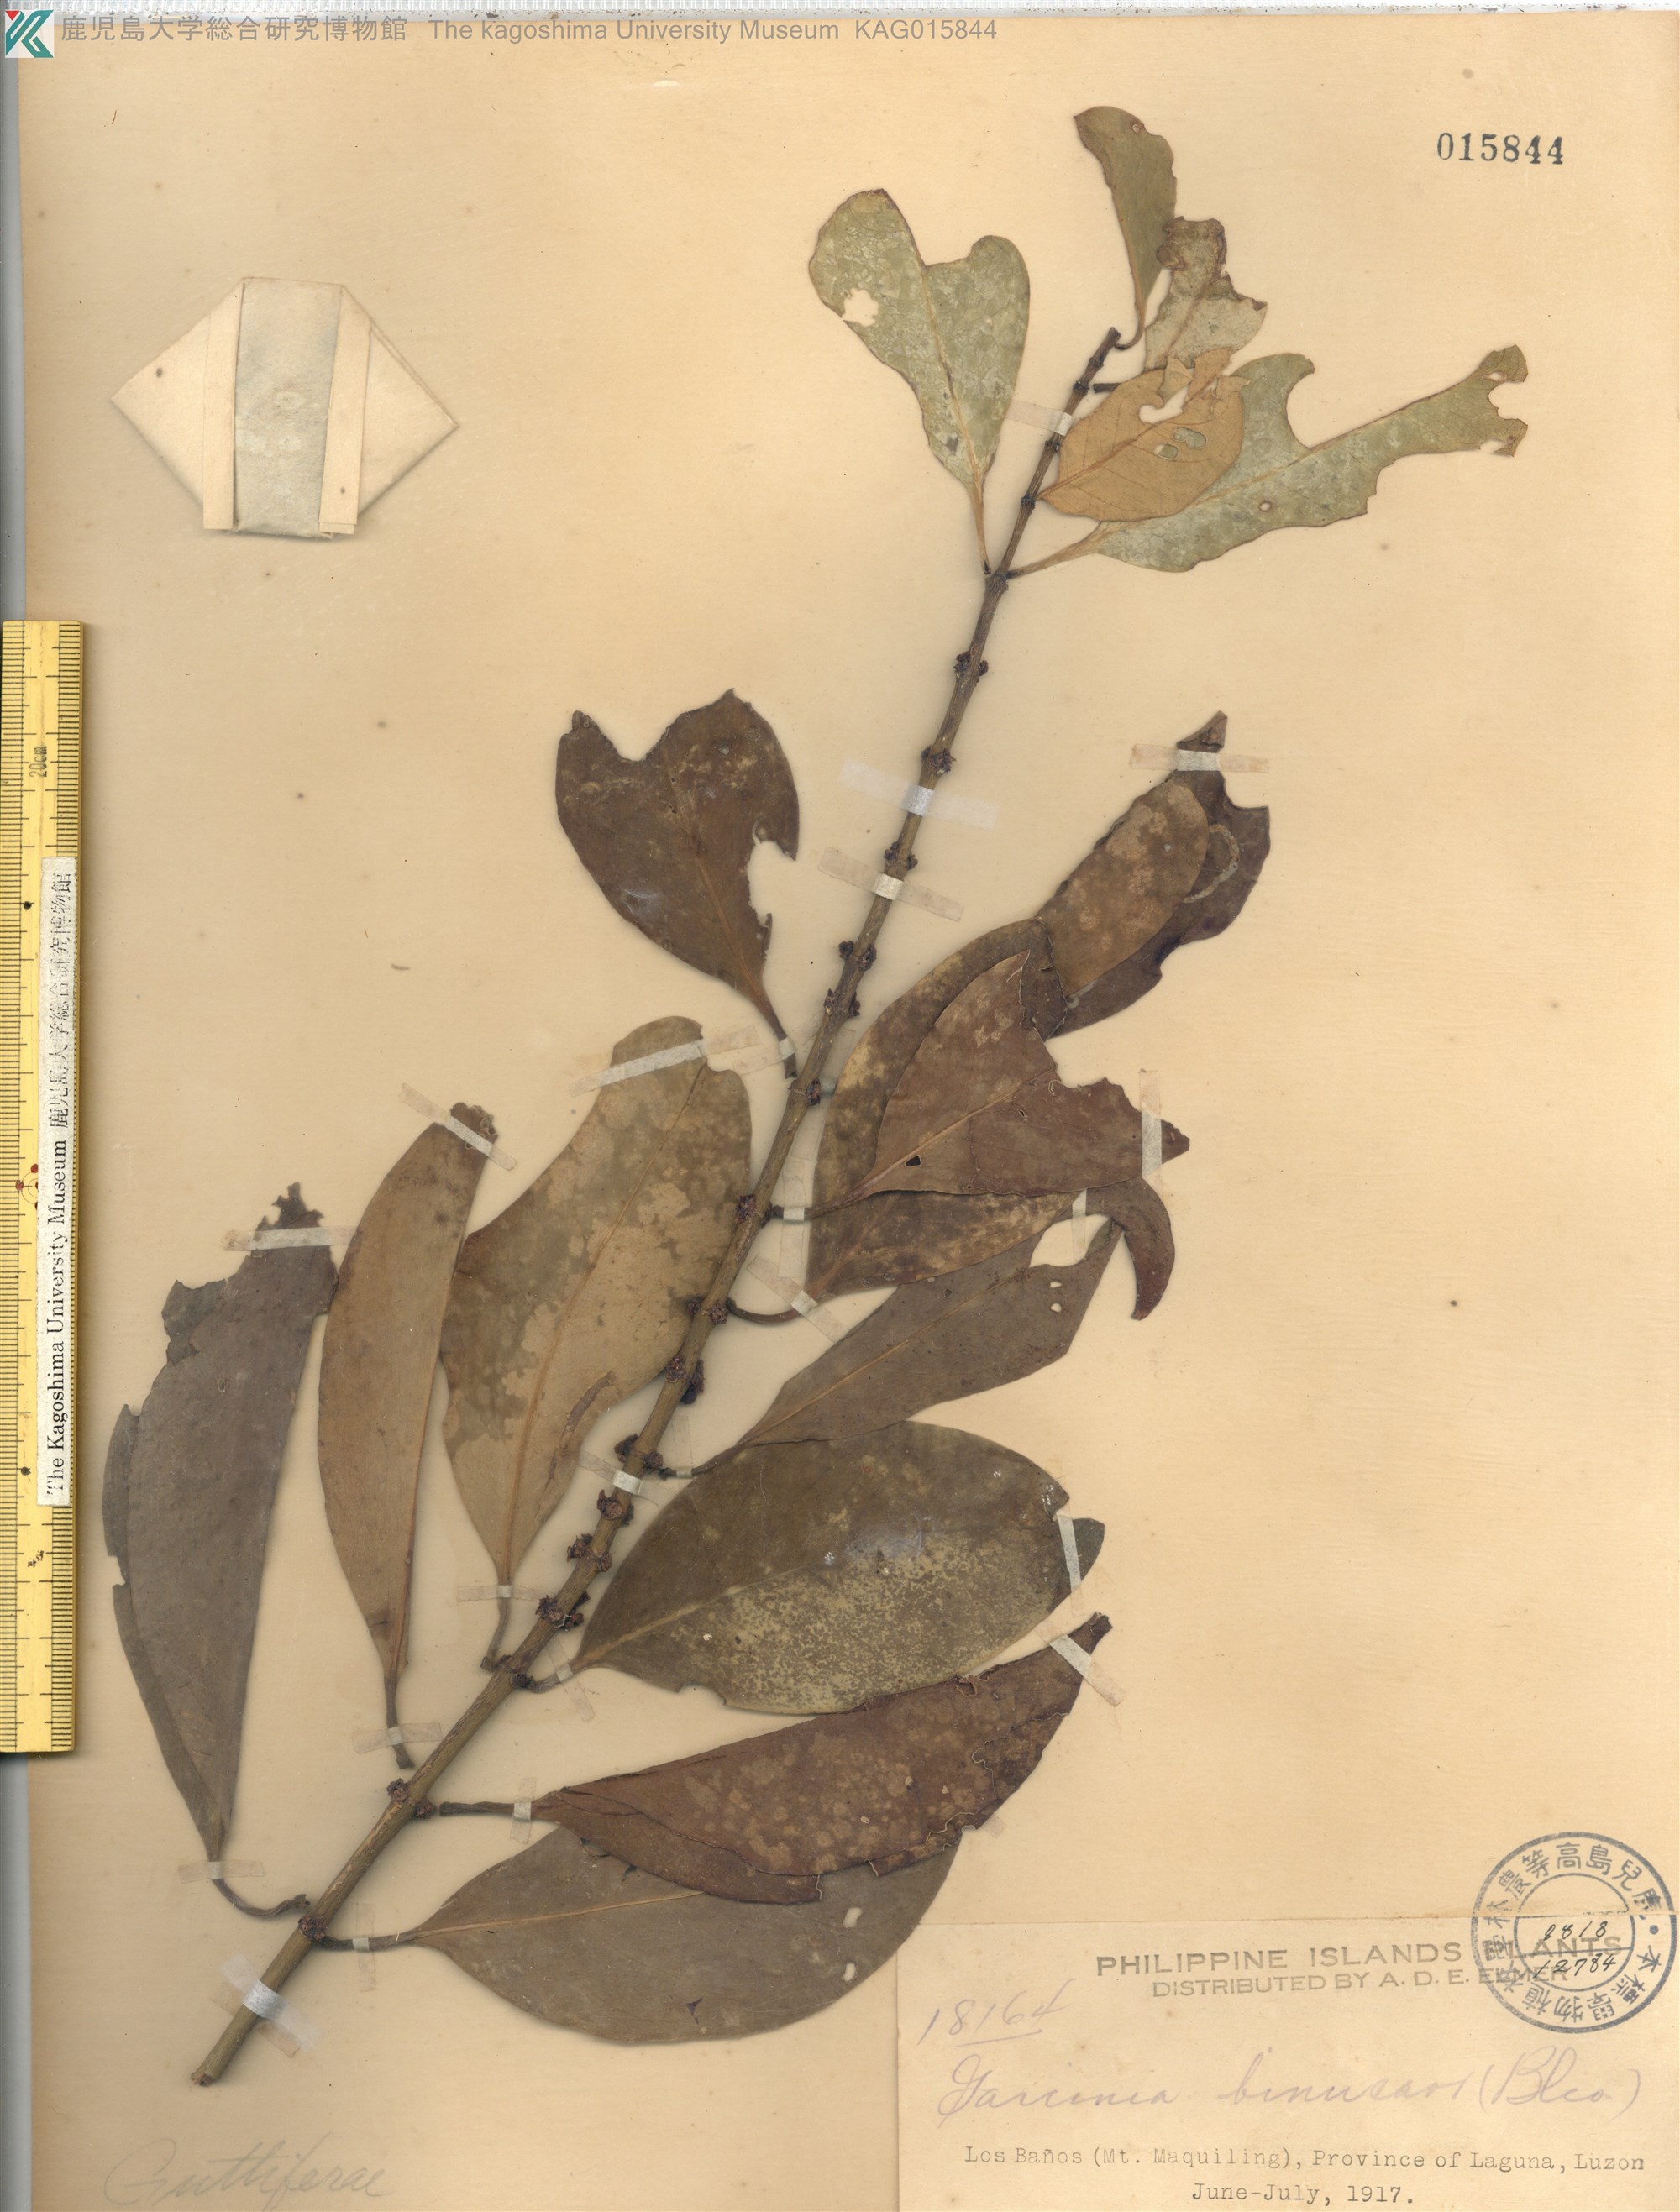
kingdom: Plantae
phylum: Tracheophyta
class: Magnoliopsida
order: Malpighiales
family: Clusiaceae
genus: Garcinia
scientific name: Garcinia binucao
